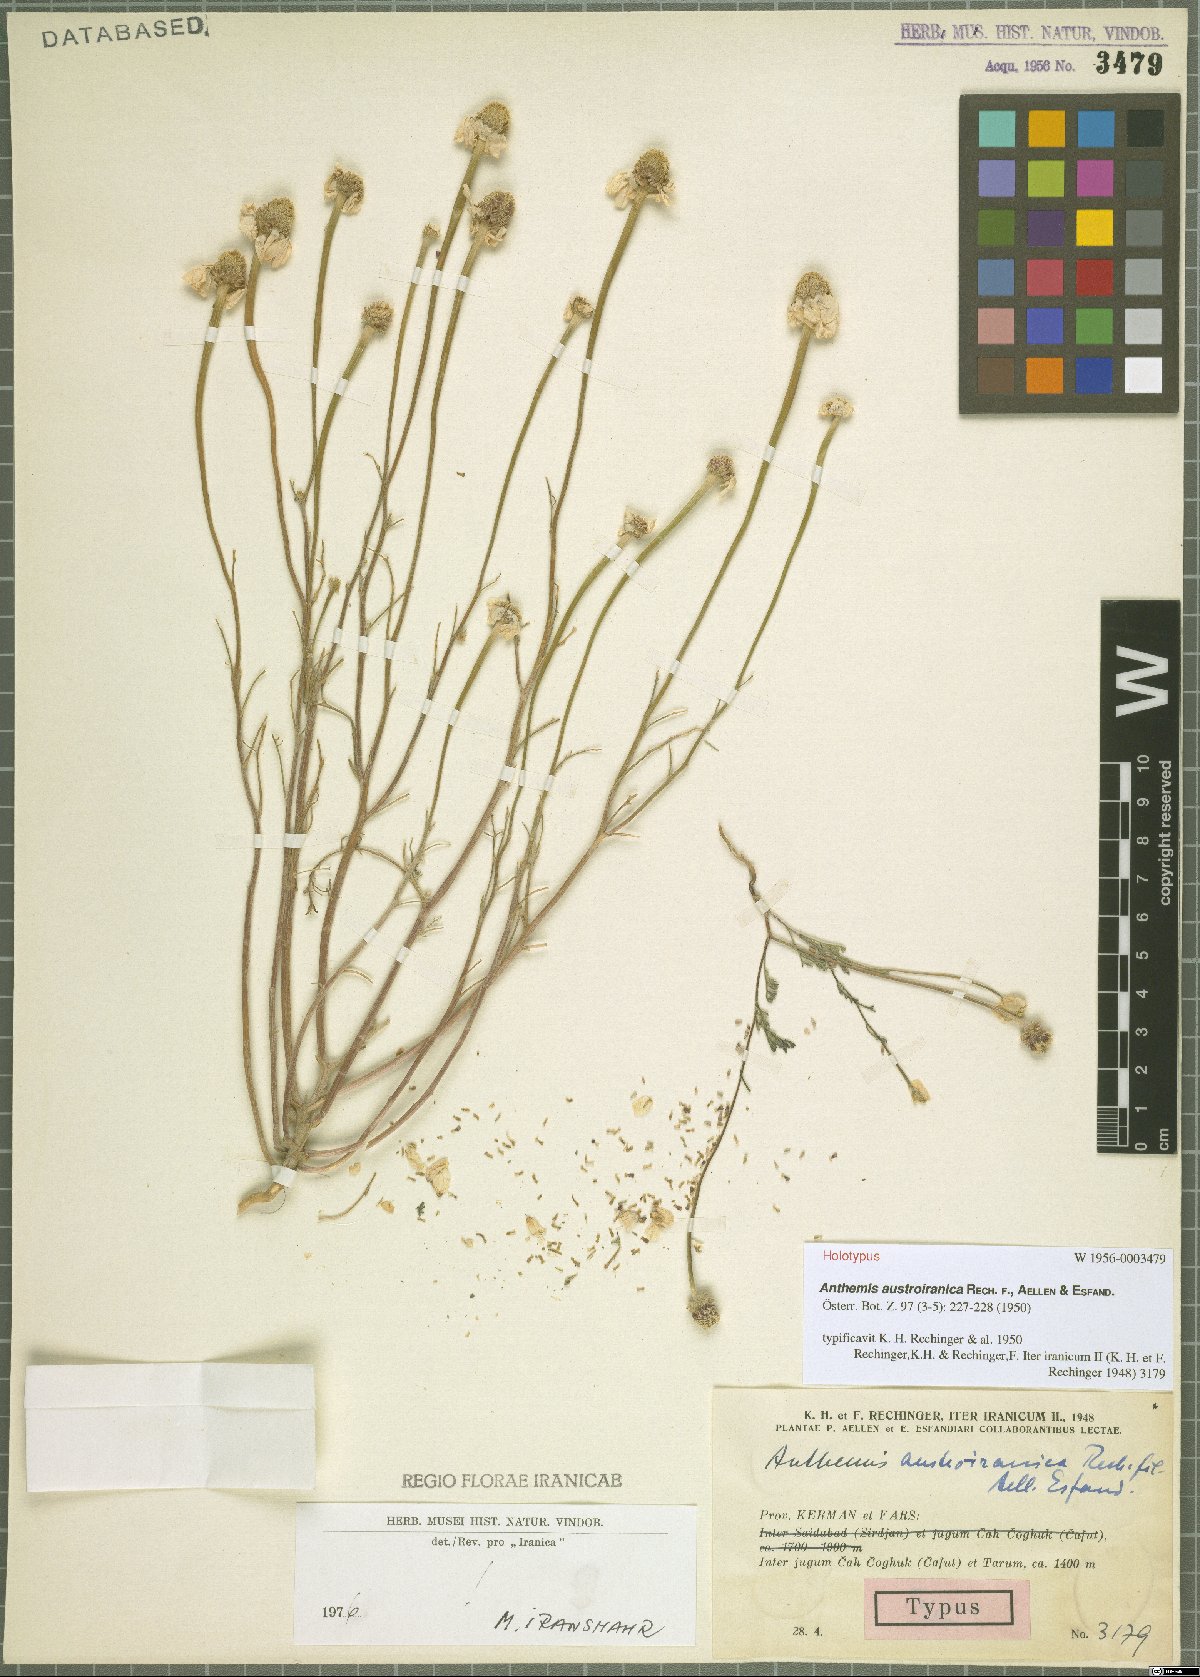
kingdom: Plantae
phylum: Tracheophyta
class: Magnoliopsida
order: Asterales
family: Asteraceae
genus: Anthemis
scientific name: Anthemis austroiranica
